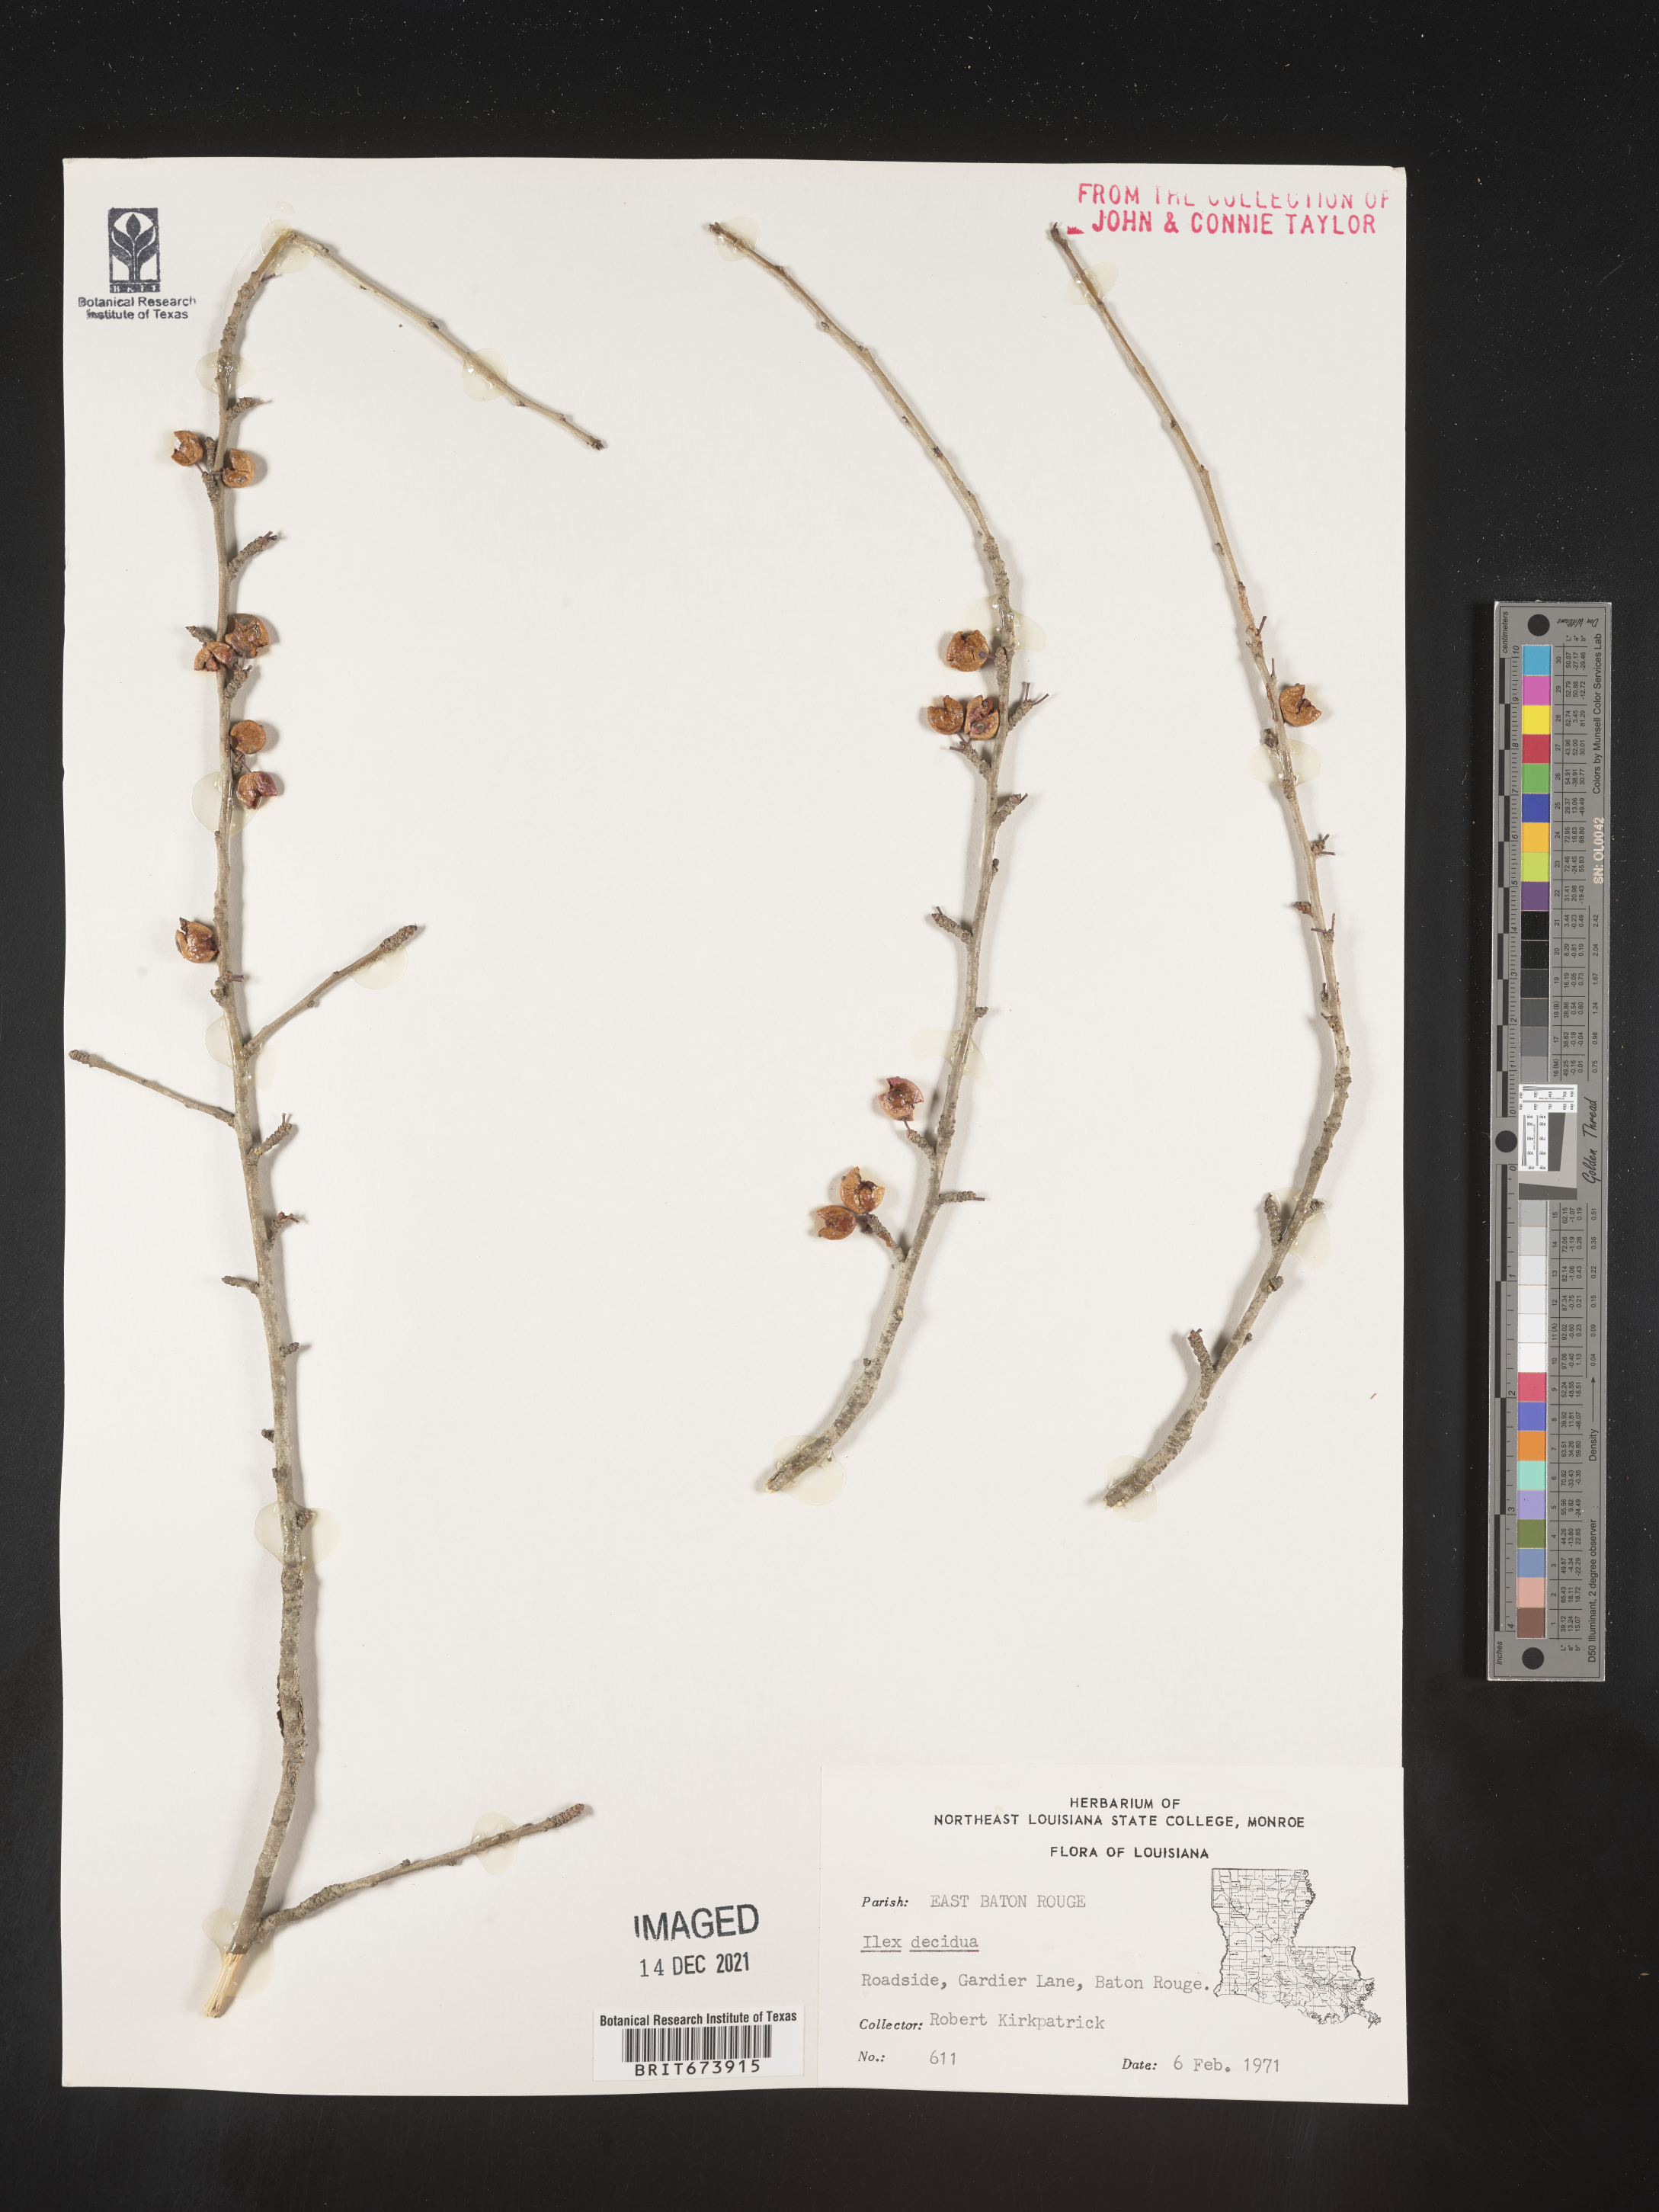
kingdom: Plantae
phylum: Tracheophyta
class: Magnoliopsida
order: Aquifoliales
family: Aquifoliaceae
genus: Ilex
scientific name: Ilex decidua
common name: Possum-haw
